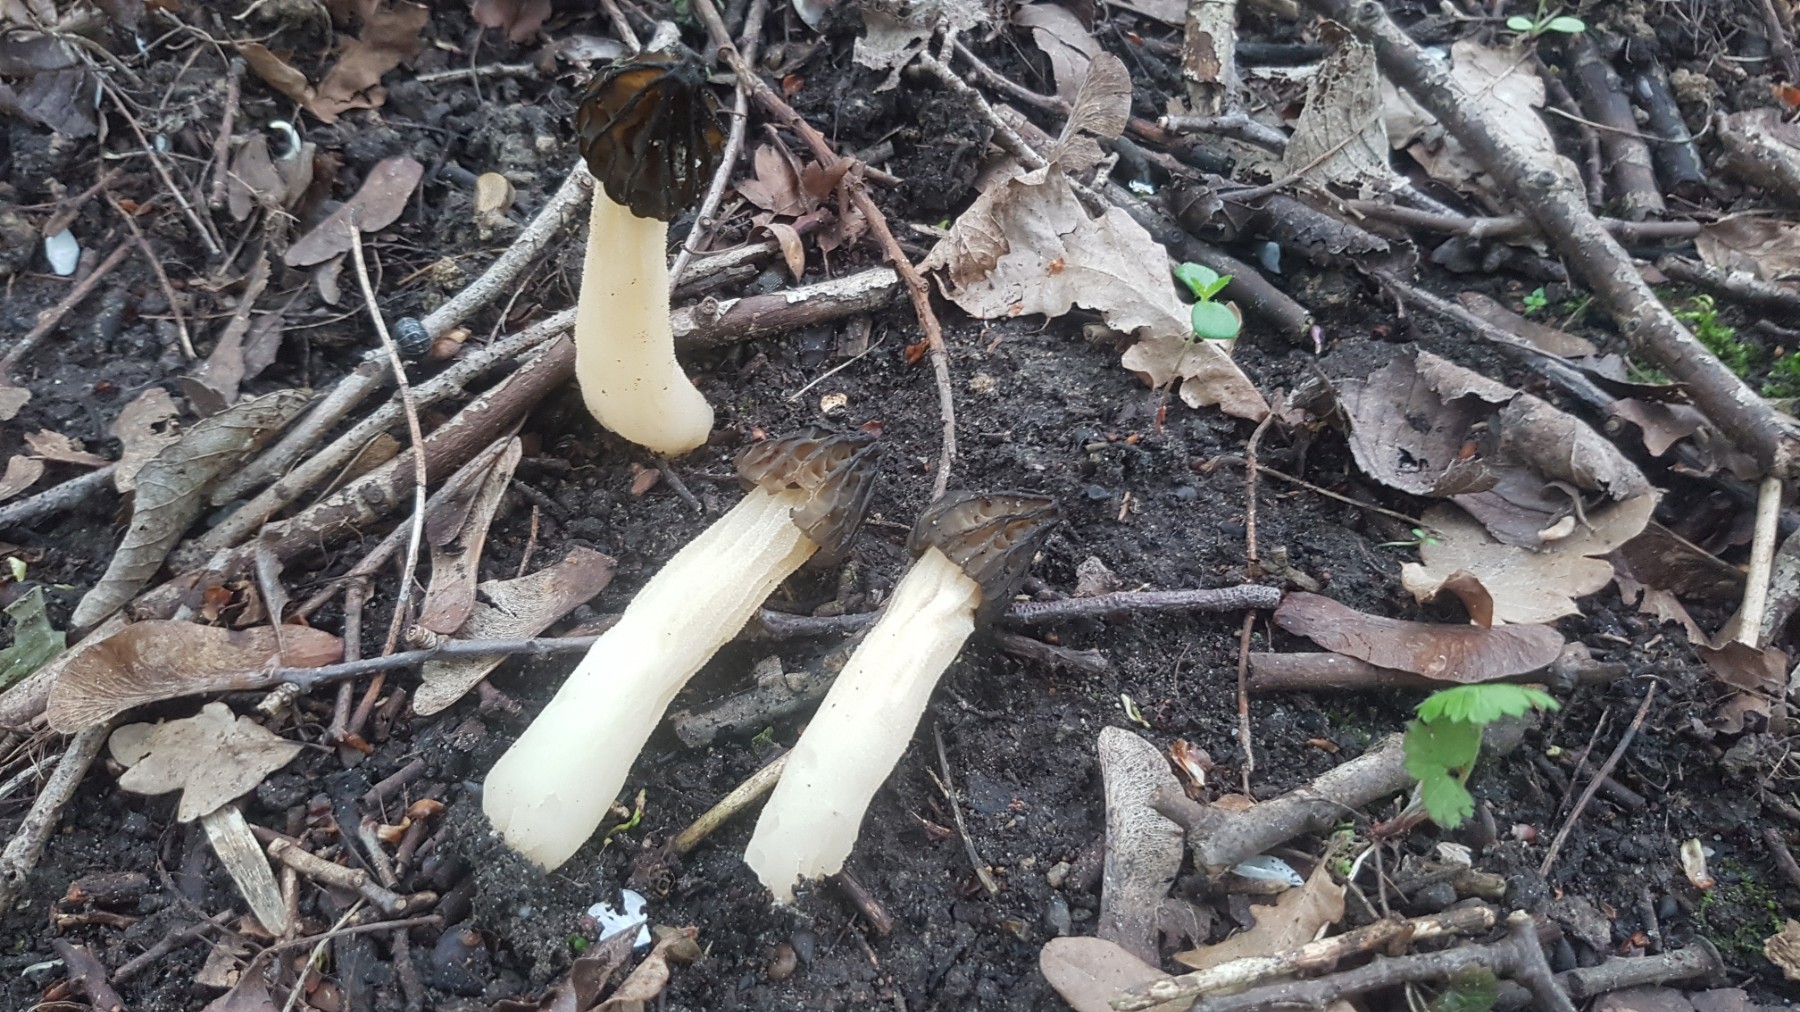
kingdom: Fungi
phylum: Ascomycota
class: Pezizomycetes
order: Pezizales
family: Morchellaceae
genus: Morchella
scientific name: Morchella semilibera
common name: hætte-morkel
